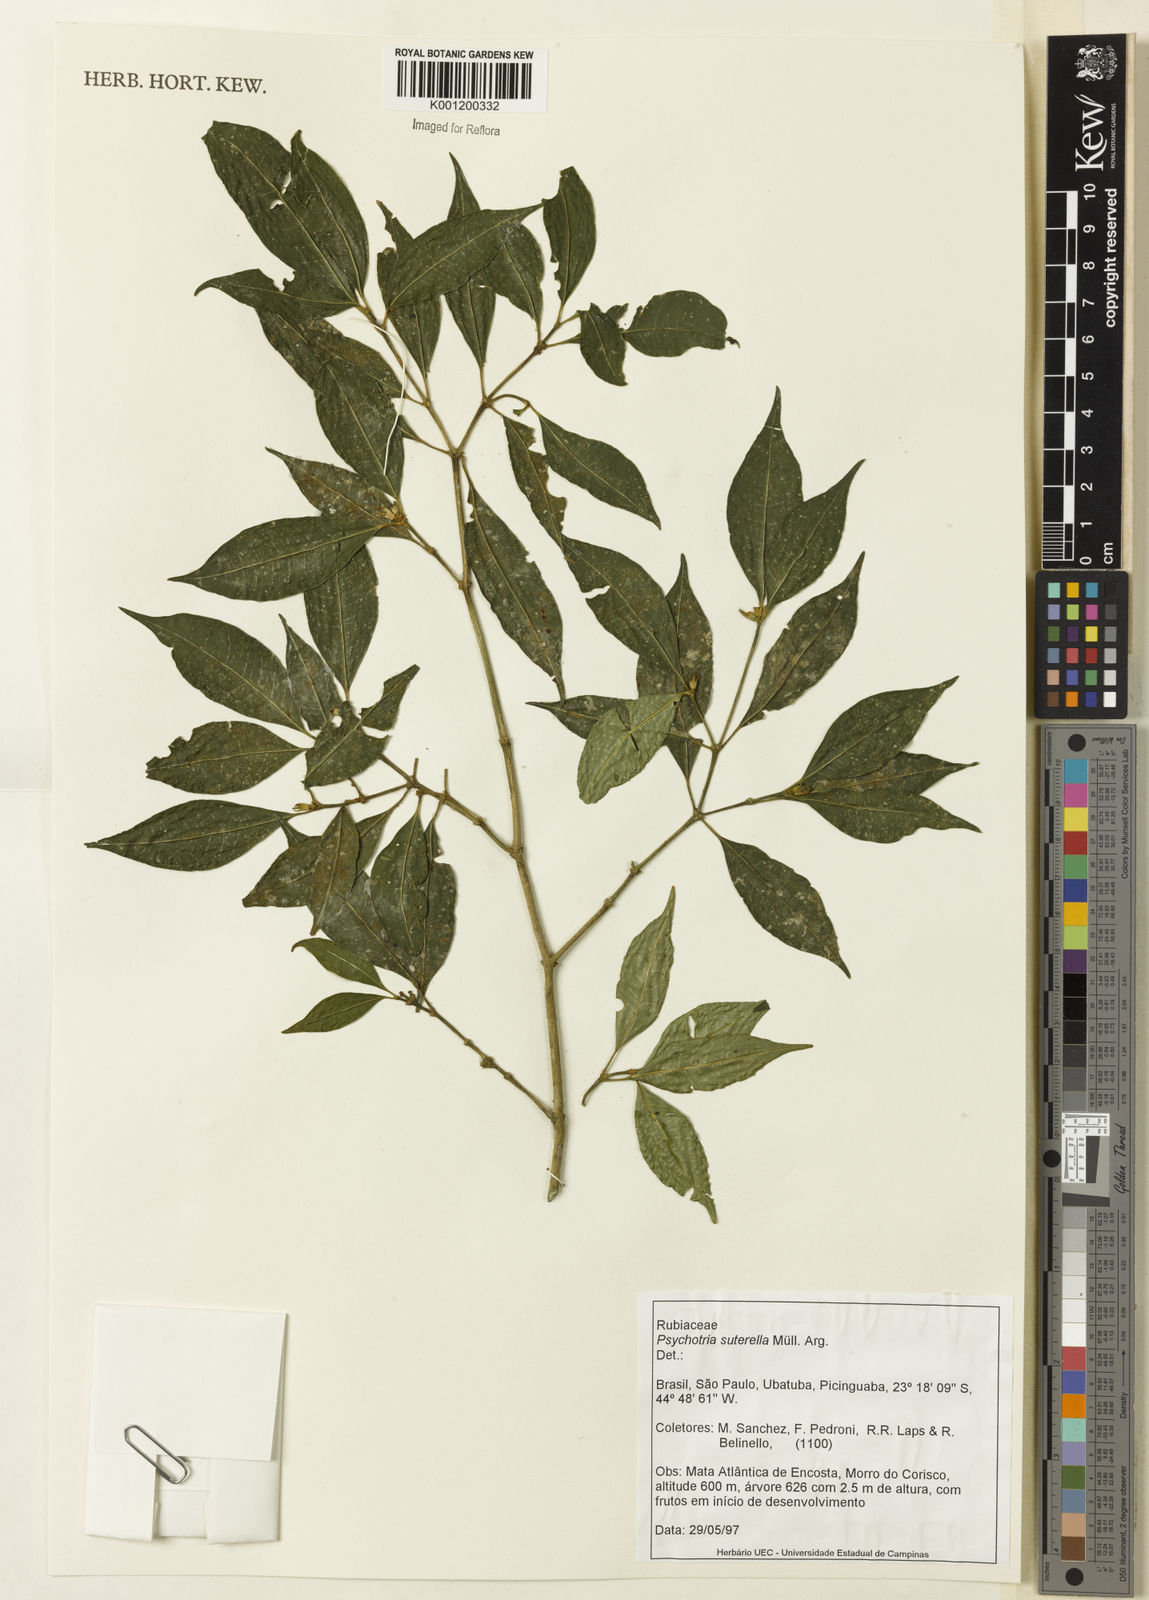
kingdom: Plantae
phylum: Tracheophyta
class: Magnoliopsida
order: Gentianales
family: Rubiaceae
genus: Psychotria
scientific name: Psychotria
